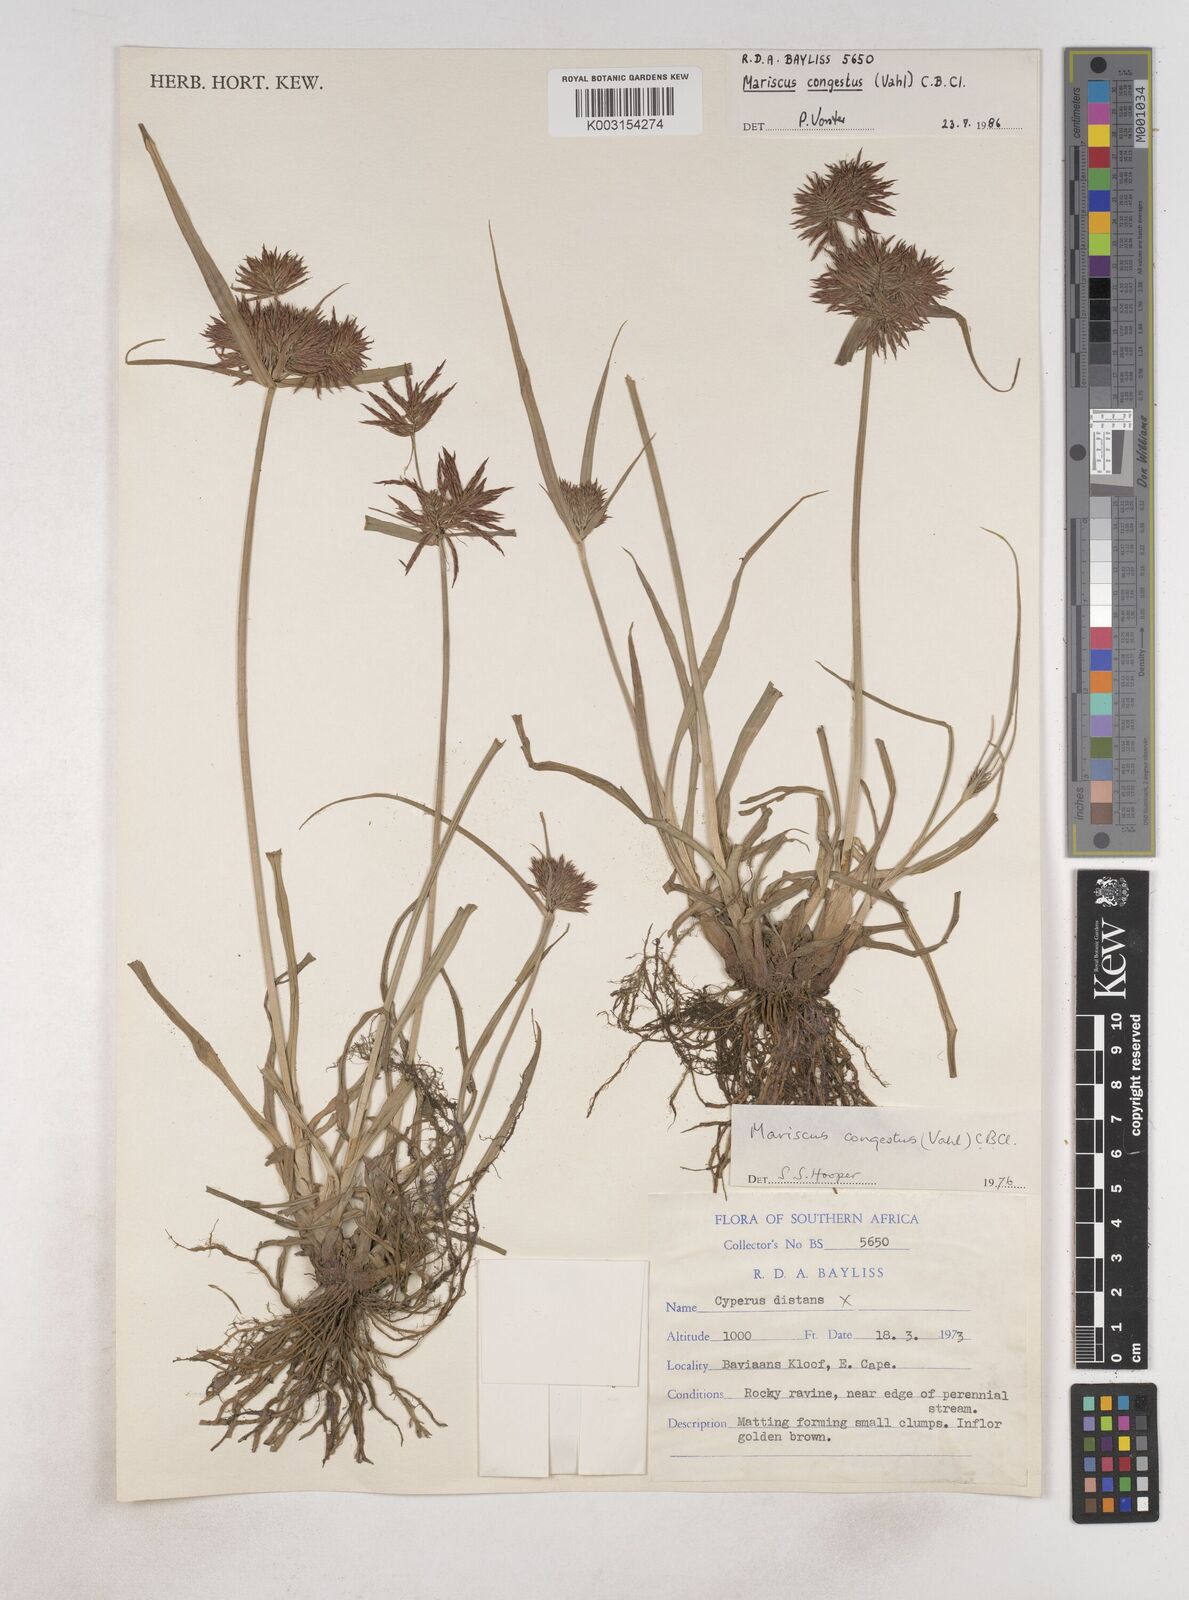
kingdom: Plantae
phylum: Tracheophyta
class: Liliopsida
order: Poales
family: Cyperaceae
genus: Cyperus
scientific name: Cyperus congestus
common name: Dense flat sedge
